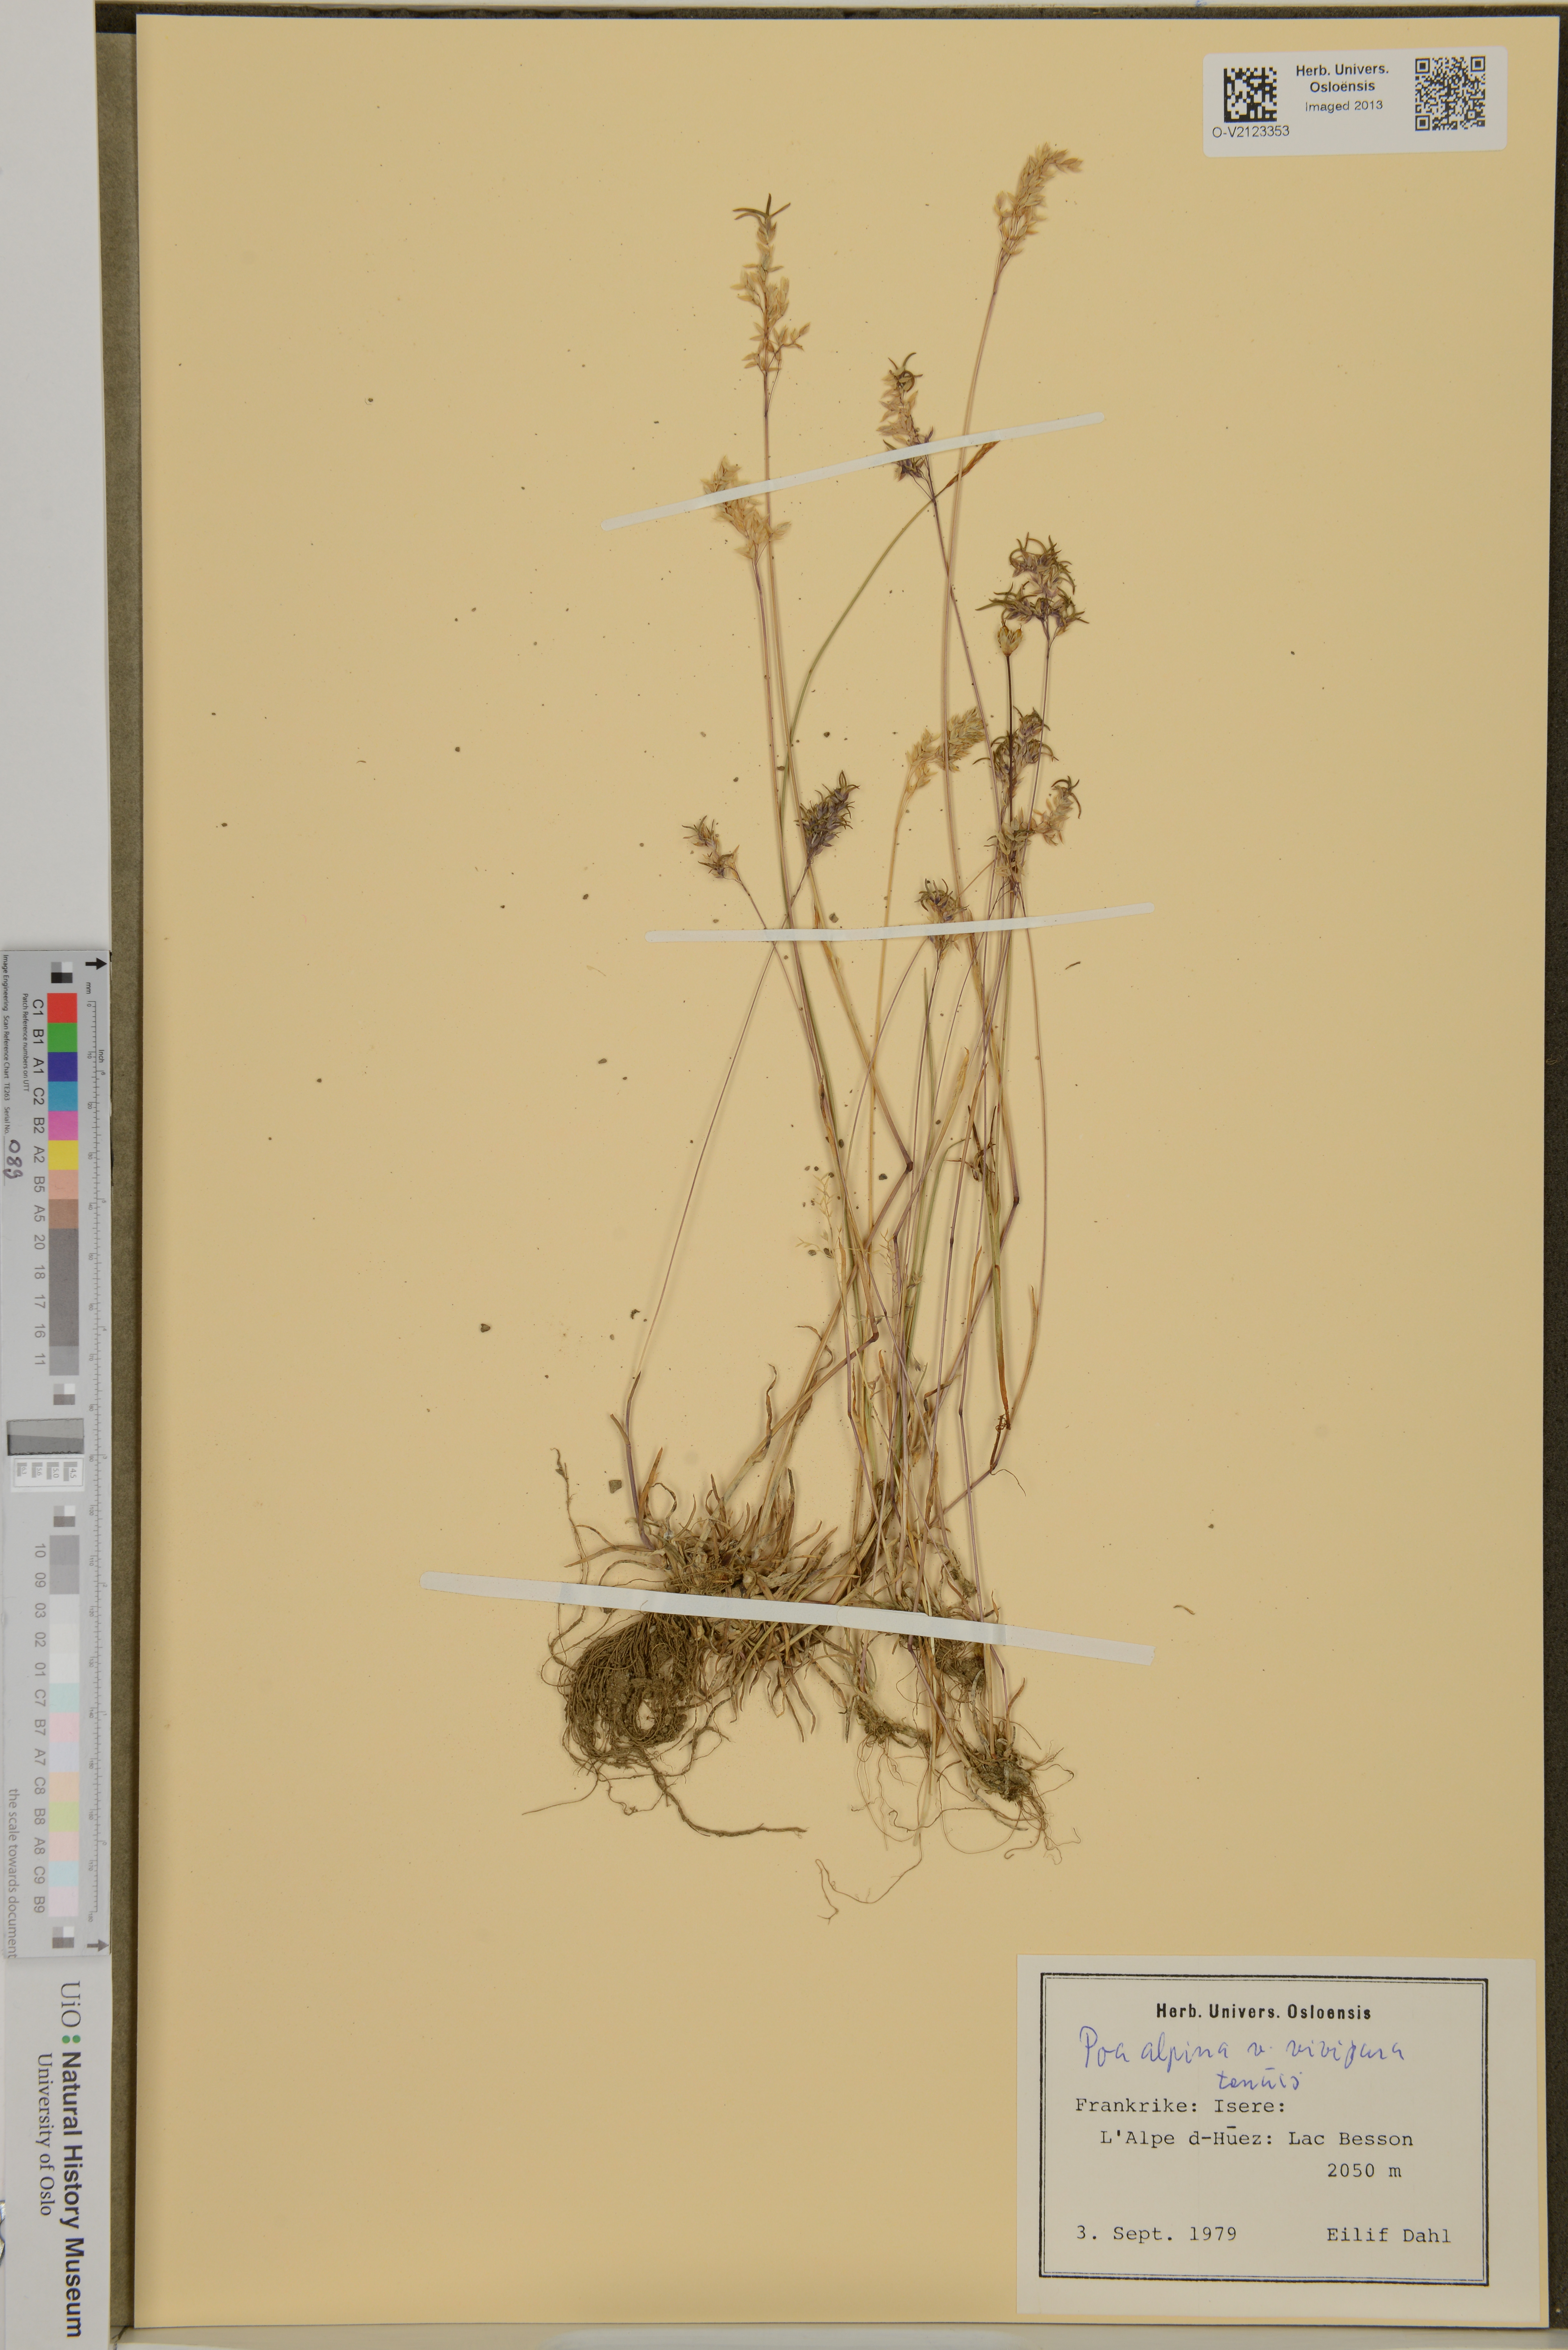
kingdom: Plantae
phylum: Tracheophyta
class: Liliopsida
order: Poales
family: Poaceae
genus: Poa
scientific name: Poa alpina
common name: Alpine bluegrass
